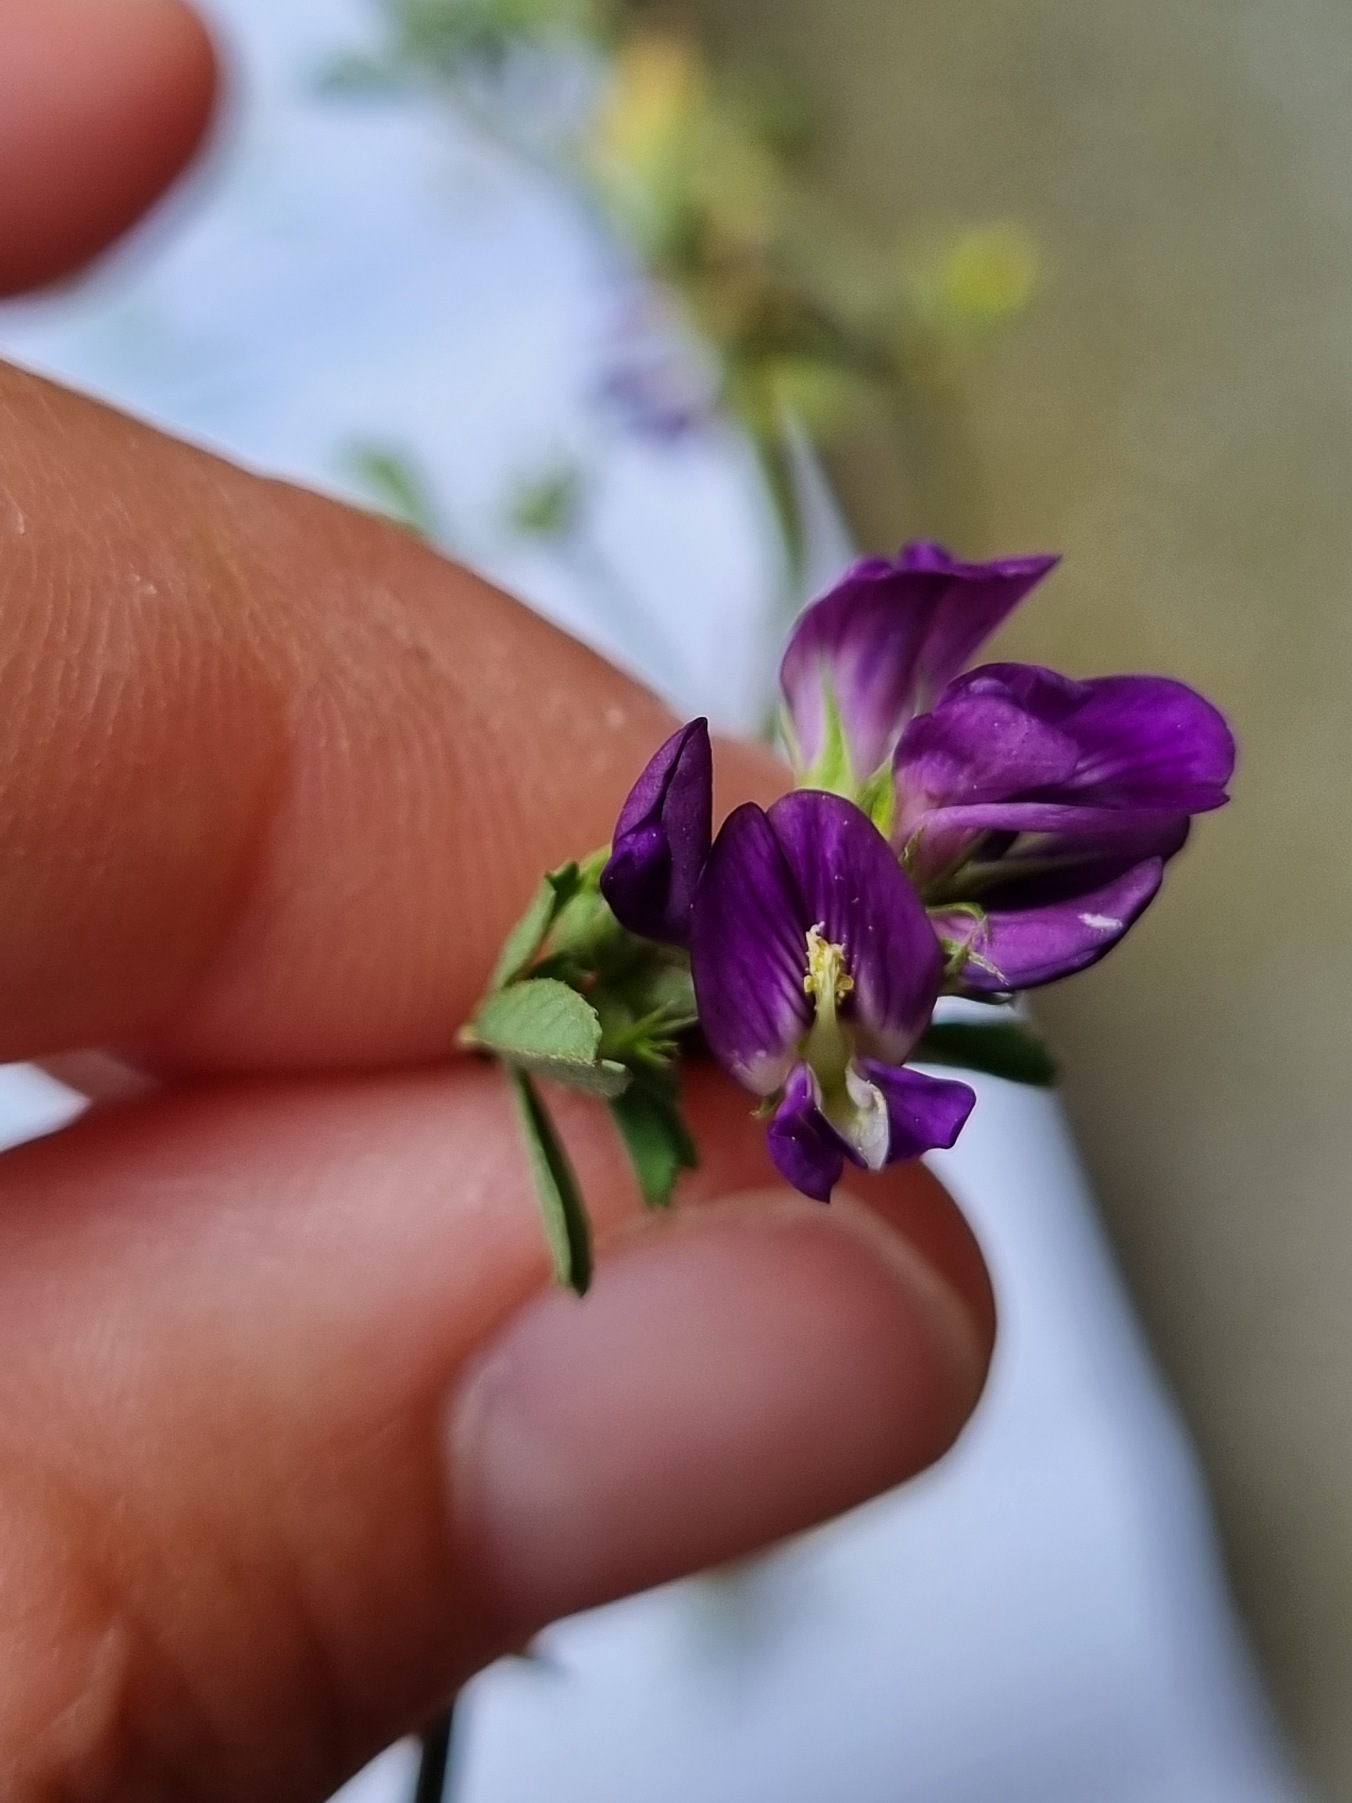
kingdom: Plantae
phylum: Tracheophyta
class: Magnoliopsida
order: Fabales
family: Fabaceae
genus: Medicago
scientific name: Medicago sativa
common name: Lucerne
